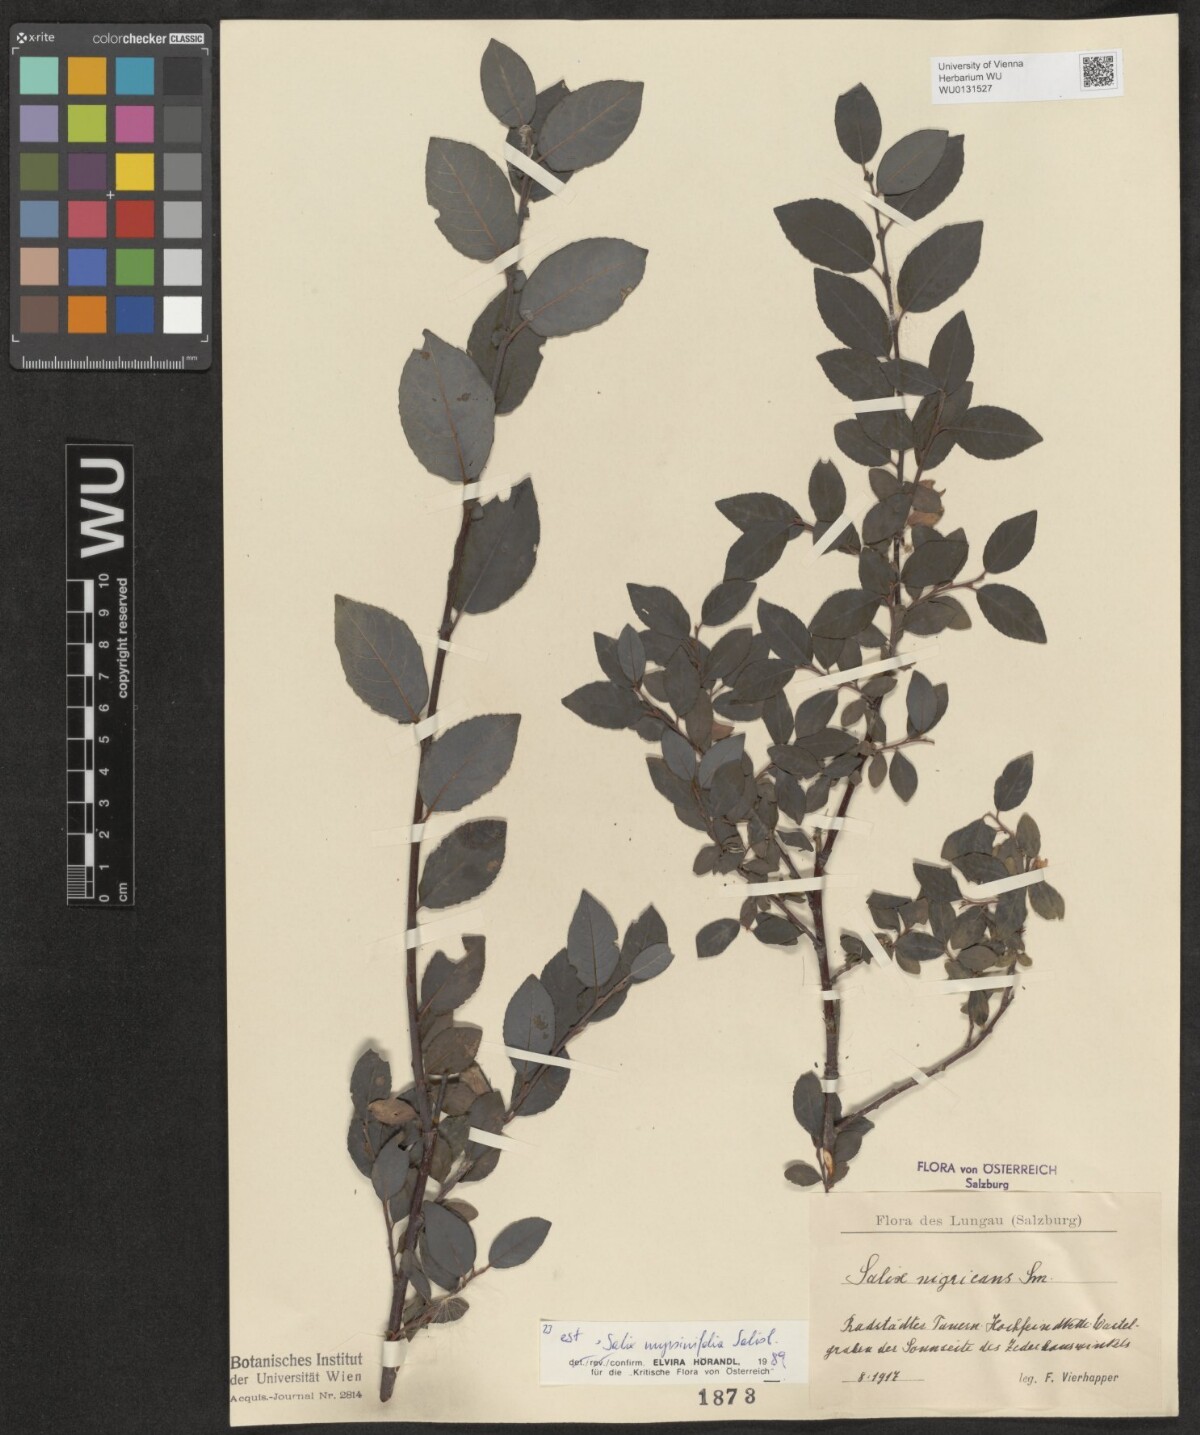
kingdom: Plantae
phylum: Tracheophyta
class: Magnoliopsida
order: Malpighiales
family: Salicaceae
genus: Salix
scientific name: Salix myrsinifolia
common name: Dark-leaved willow
